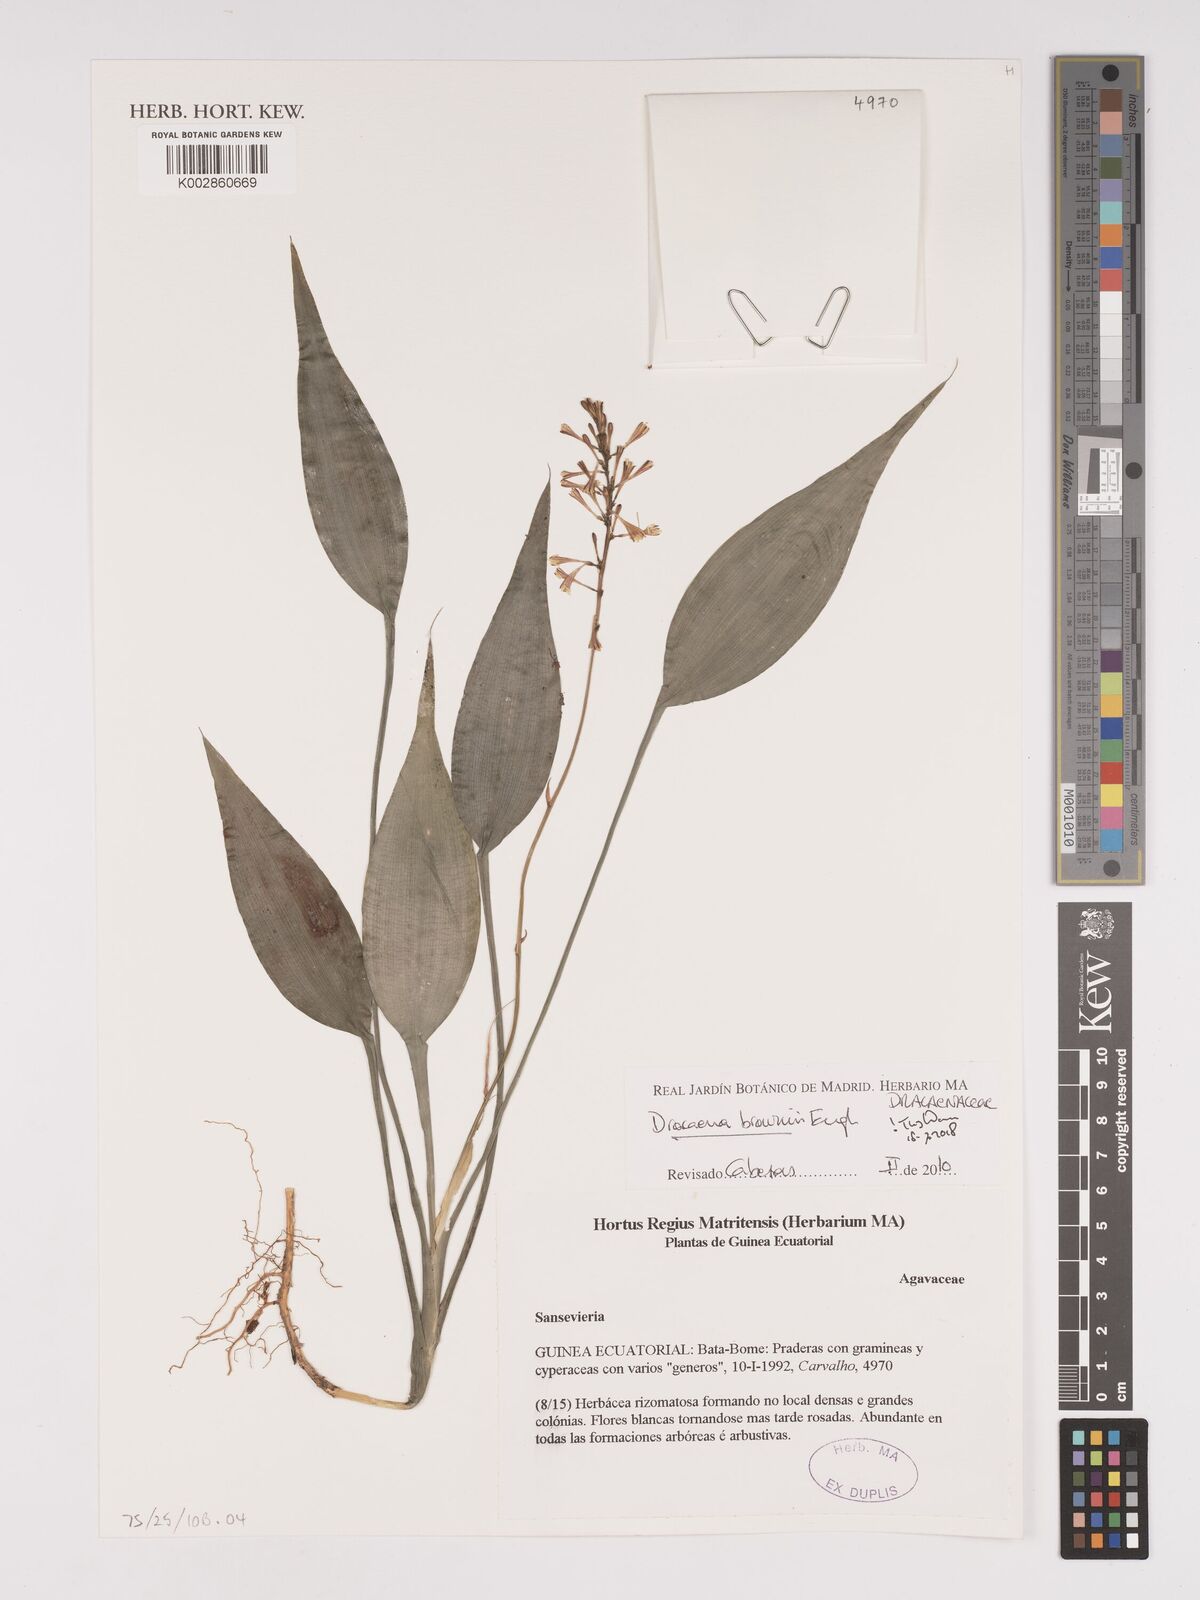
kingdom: Plantae
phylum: Tracheophyta
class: Liliopsida
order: Asparagales
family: Asparagaceae
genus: Dracaena
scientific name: Dracaena braunii
